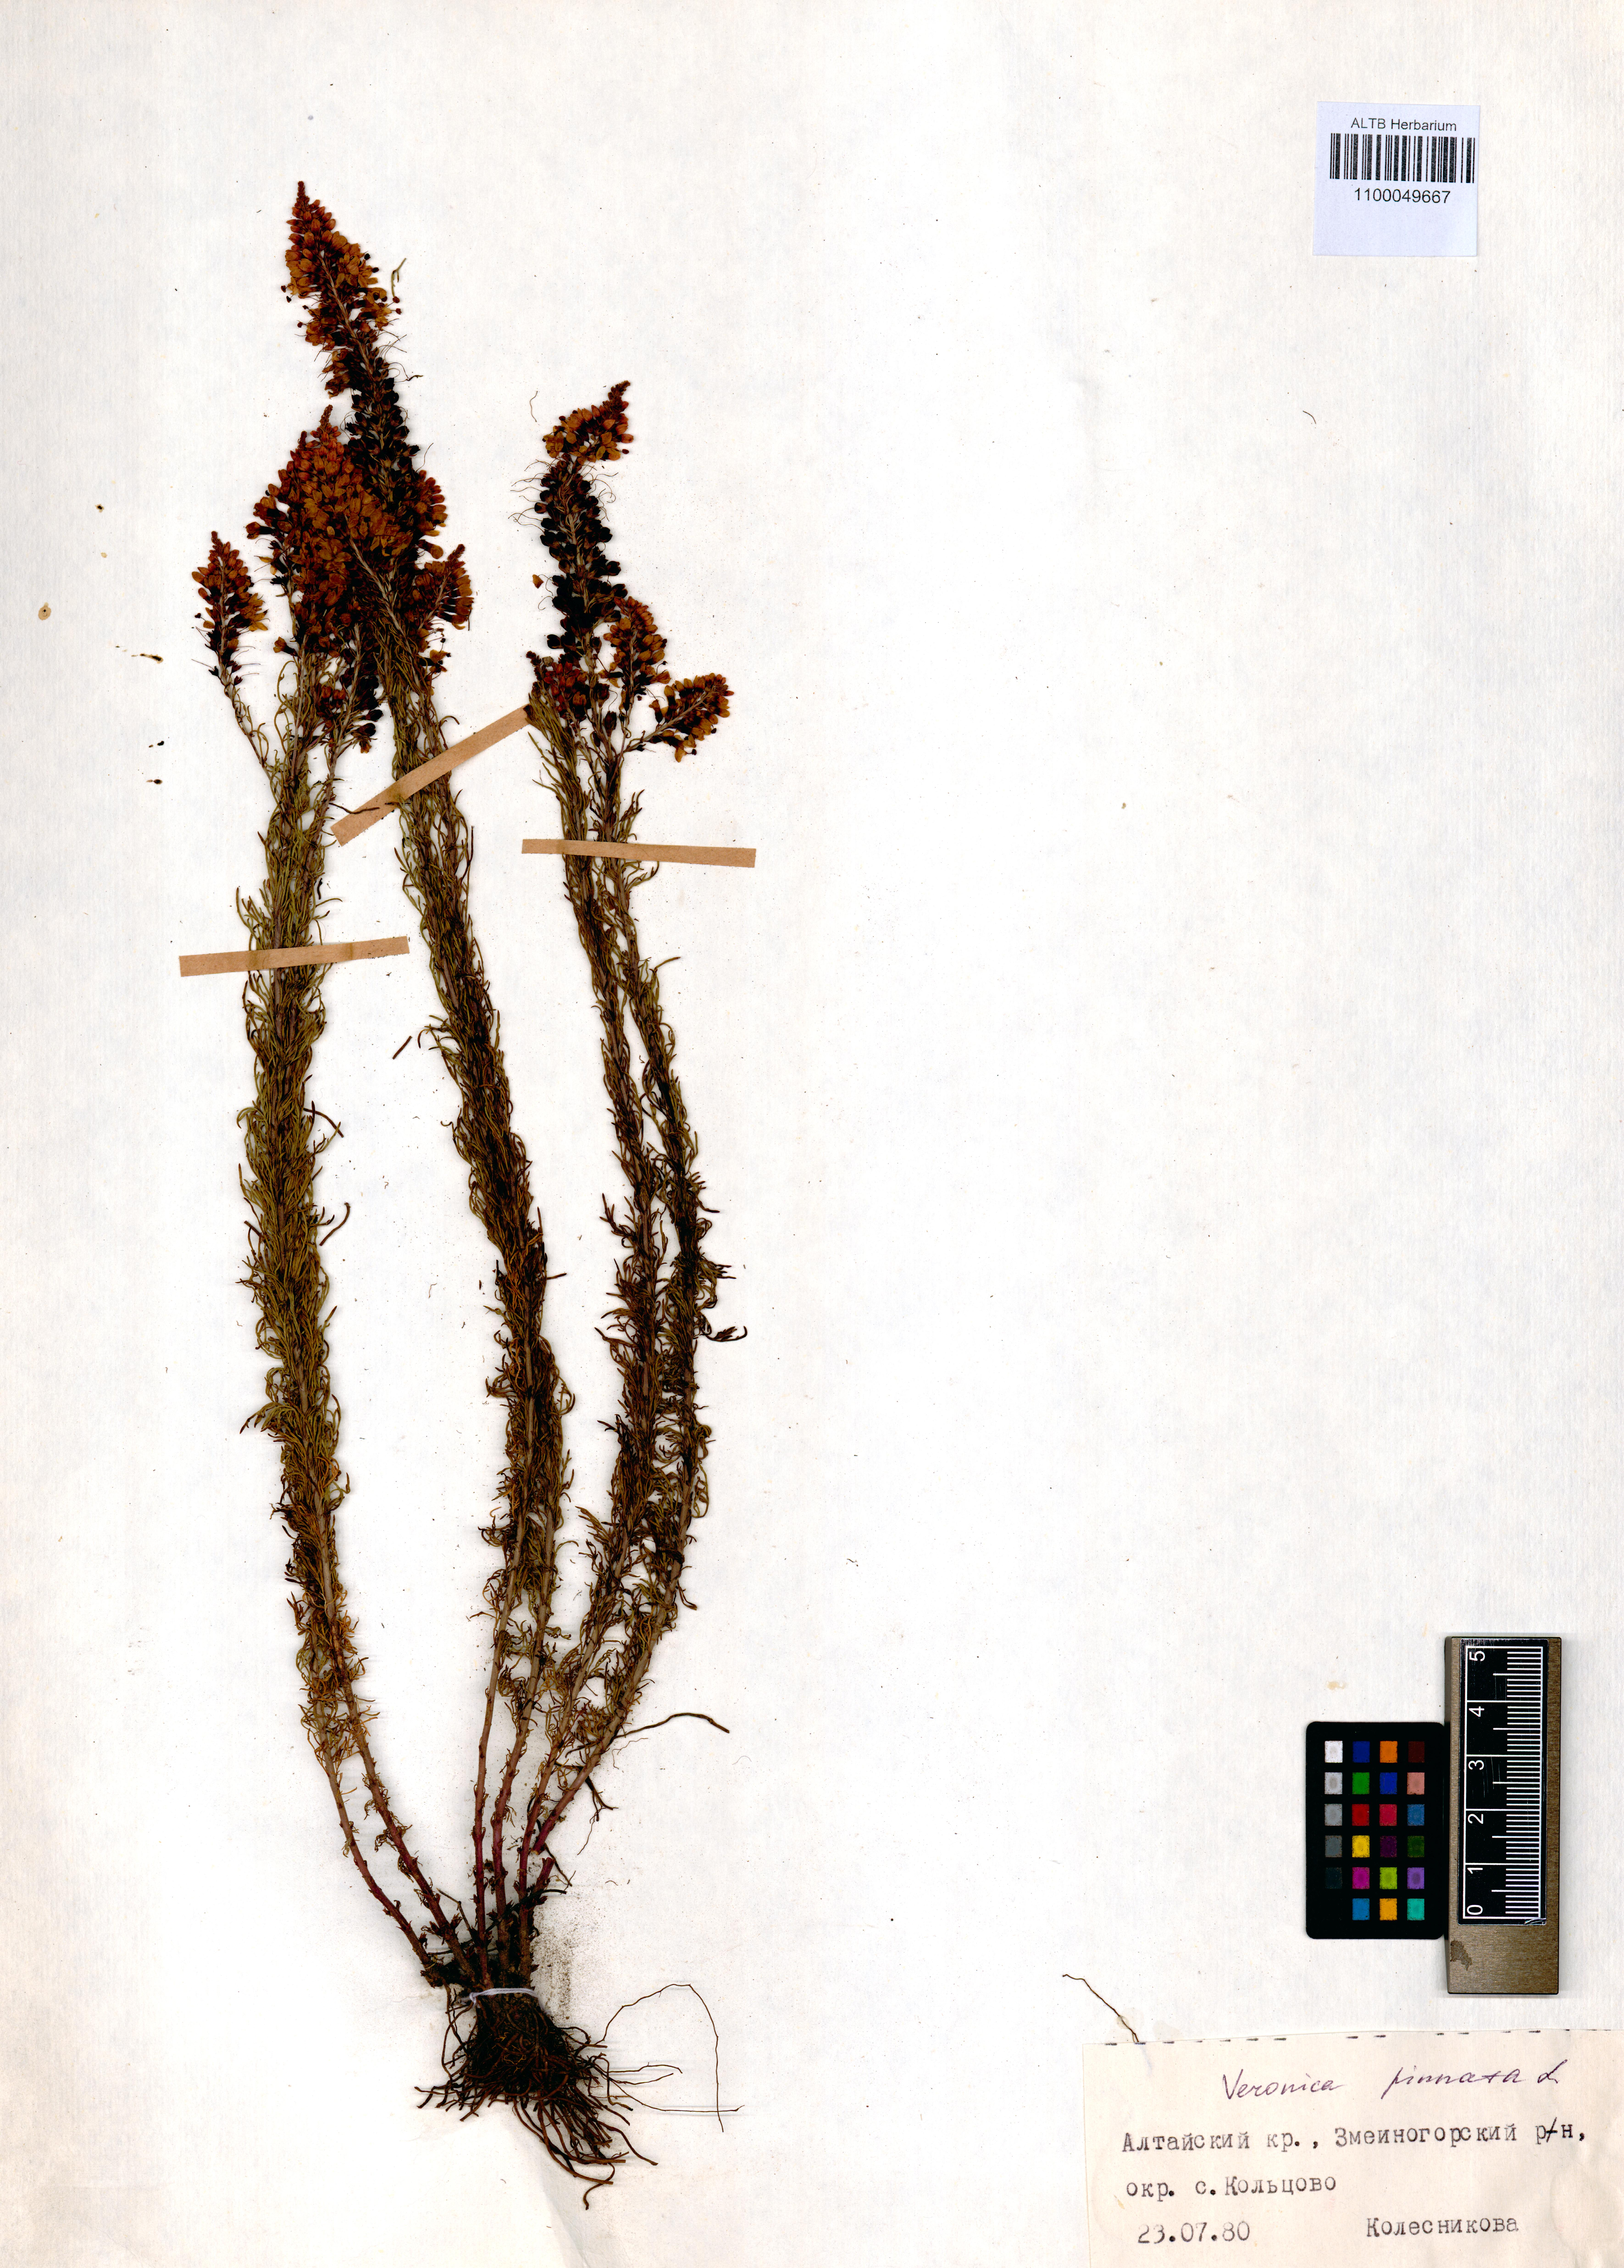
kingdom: Plantae
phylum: Tracheophyta
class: Magnoliopsida
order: Lamiales
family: Plantaginaceae
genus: Veronica
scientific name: Veronica pinnata
